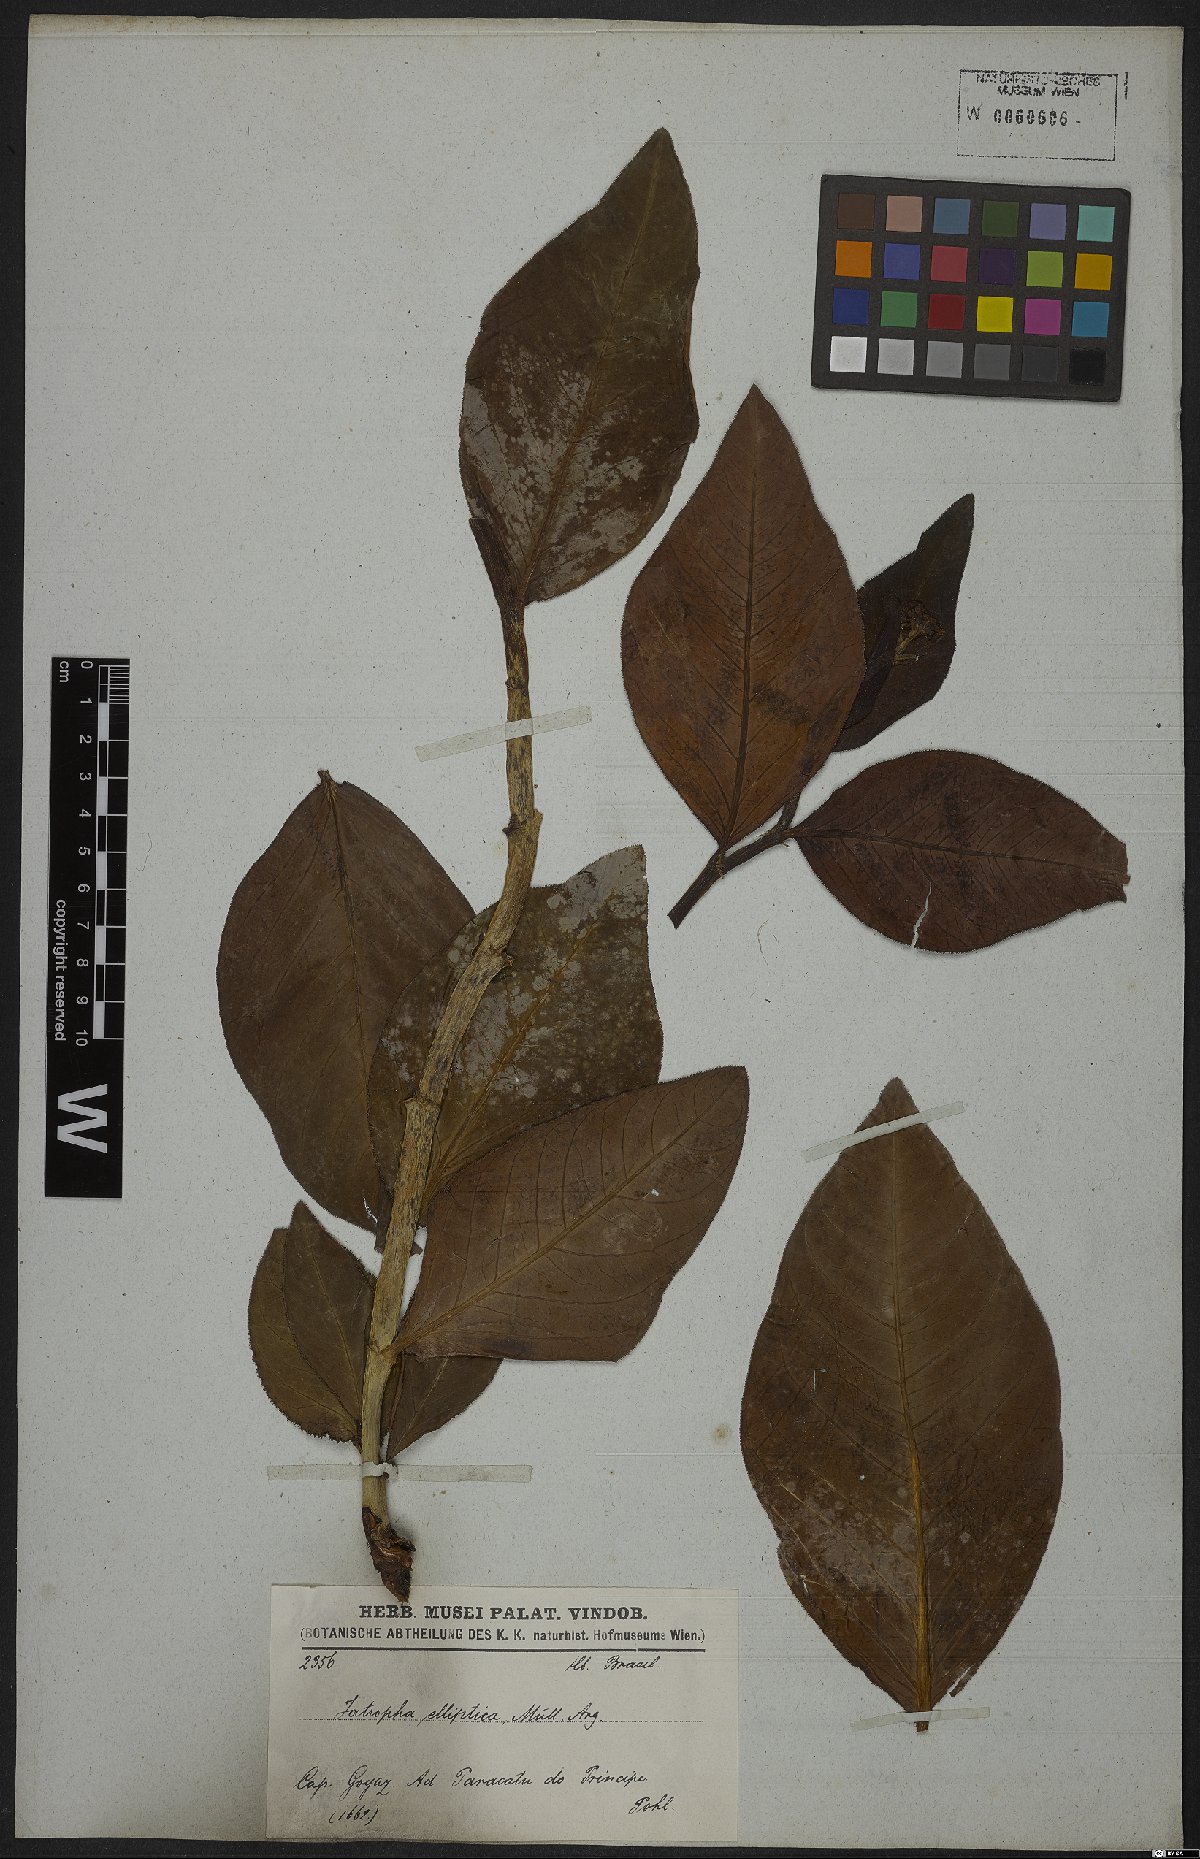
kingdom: Plantae
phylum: Tracheophyta
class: Magnoliopsida
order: Malpighiales
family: Euphorbiaceae
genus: Jatropha
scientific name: Jatropha elliptica
